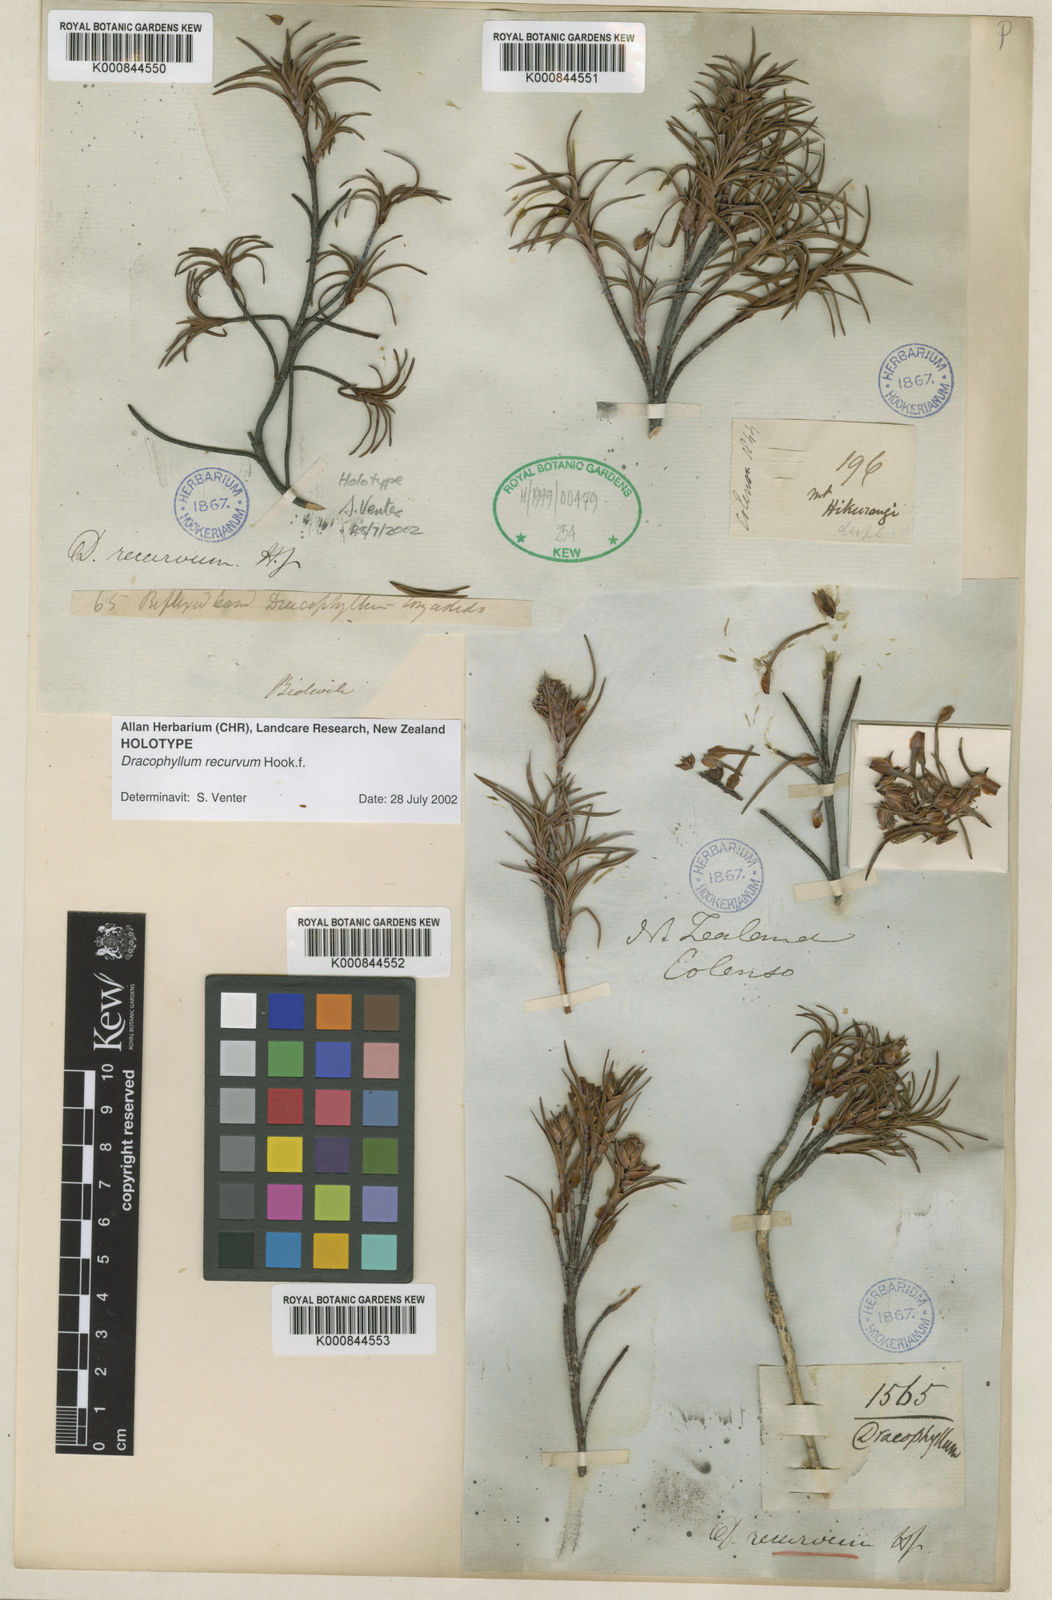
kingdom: Plantae
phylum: Tracheophyta
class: Magnoliopsida
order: Ericales
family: Ericaceae
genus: Dracophyllum
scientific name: Dracophyllum recurvum
